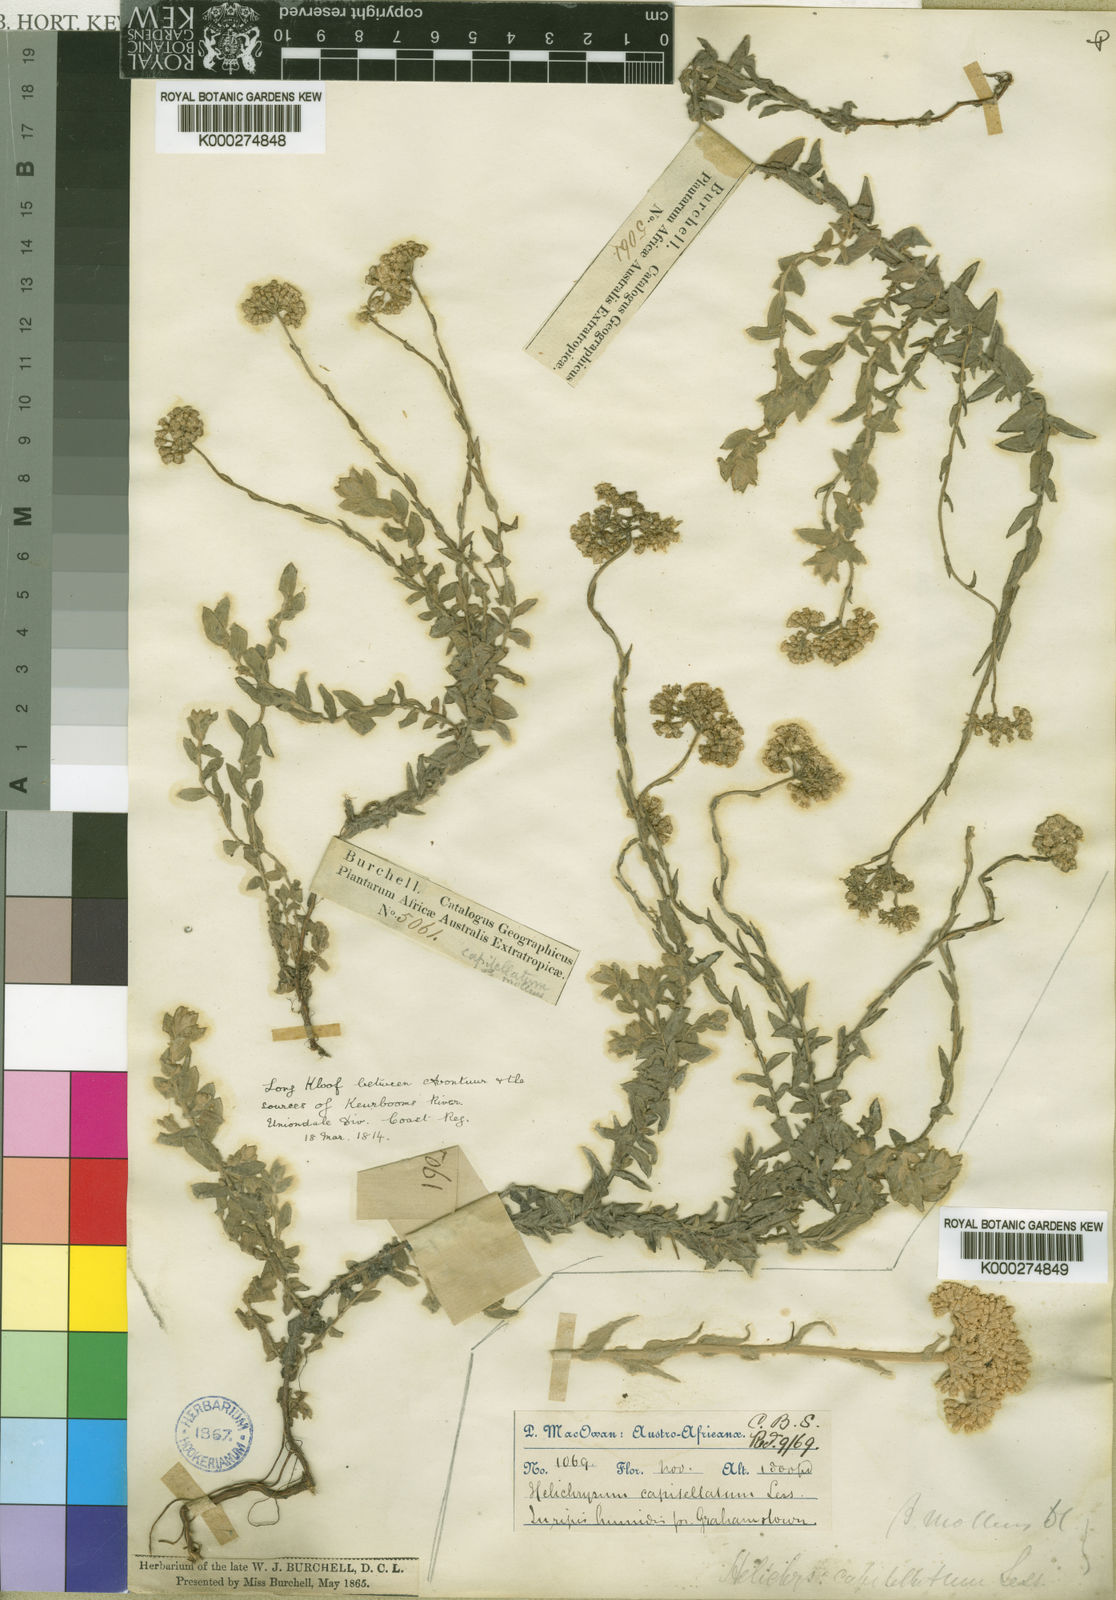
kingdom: Plantae
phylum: Tracheophyta
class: Magnoliopsida
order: Asterales
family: Asteraceae
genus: Helichrysum
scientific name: Helichrysum helianthemifolium
